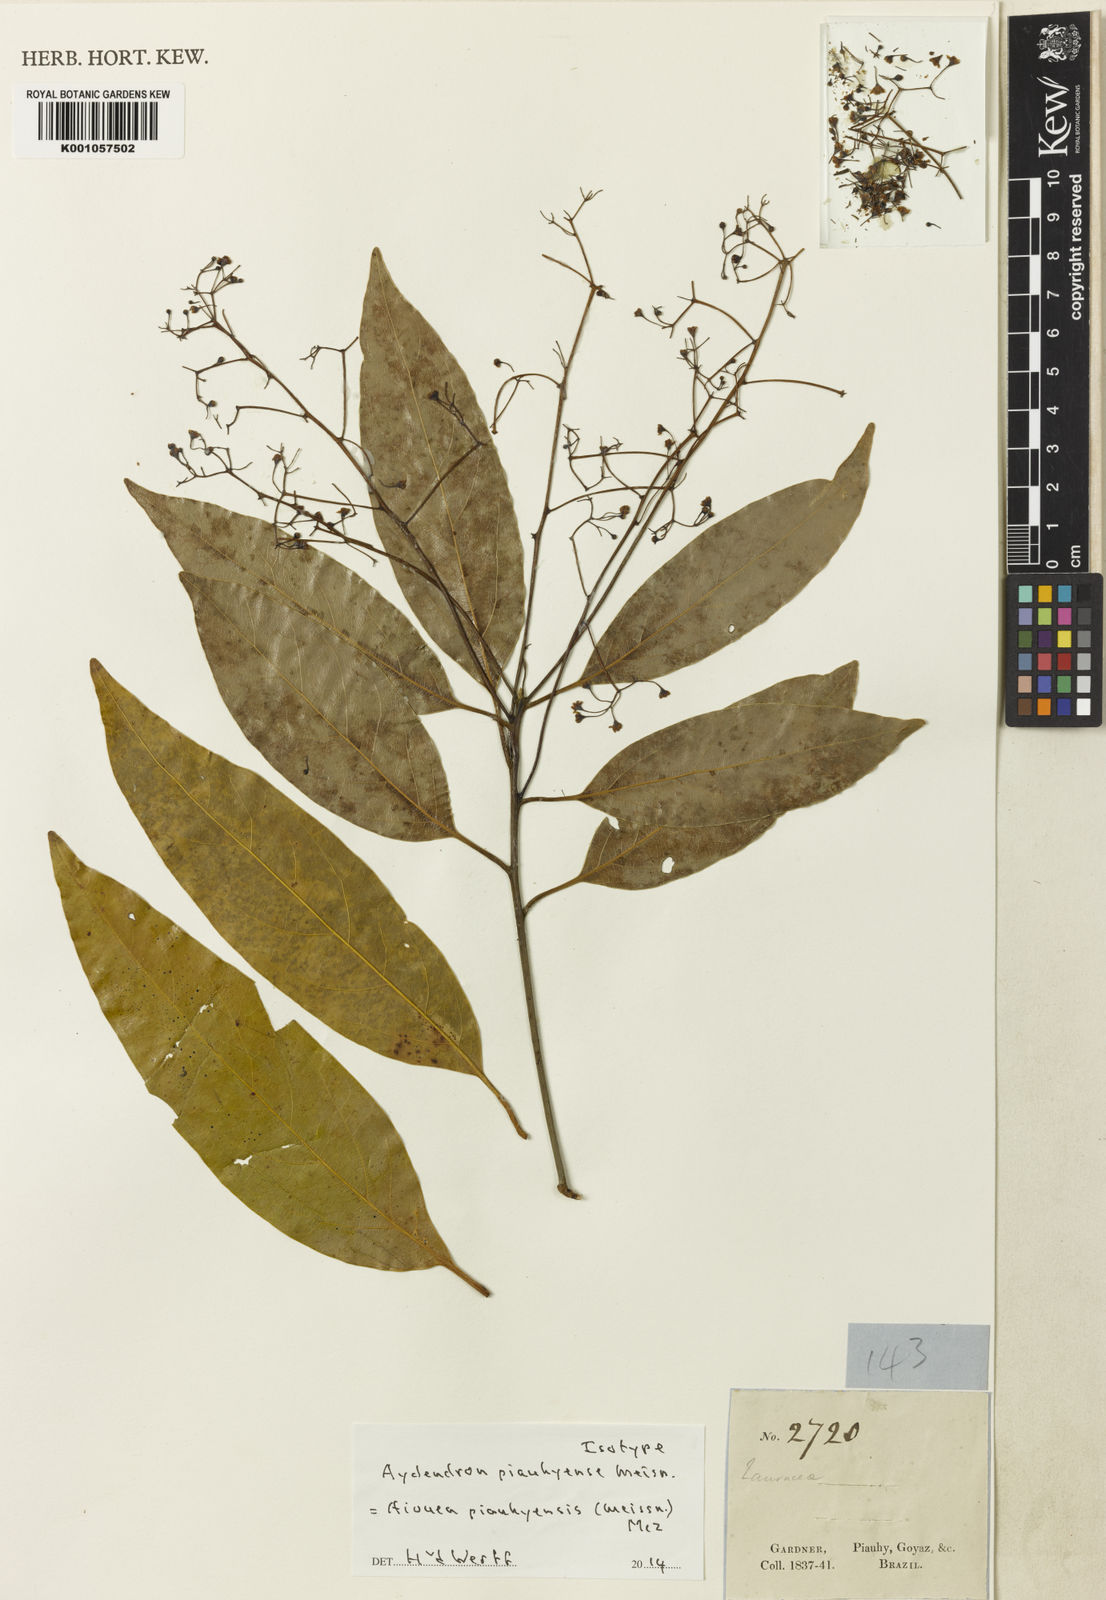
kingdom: Plantae
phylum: Tracheophyta
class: Magnoliopsida
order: Laurales
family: Lauraceae
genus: Aiouea
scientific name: Aiouea piauhyensis
